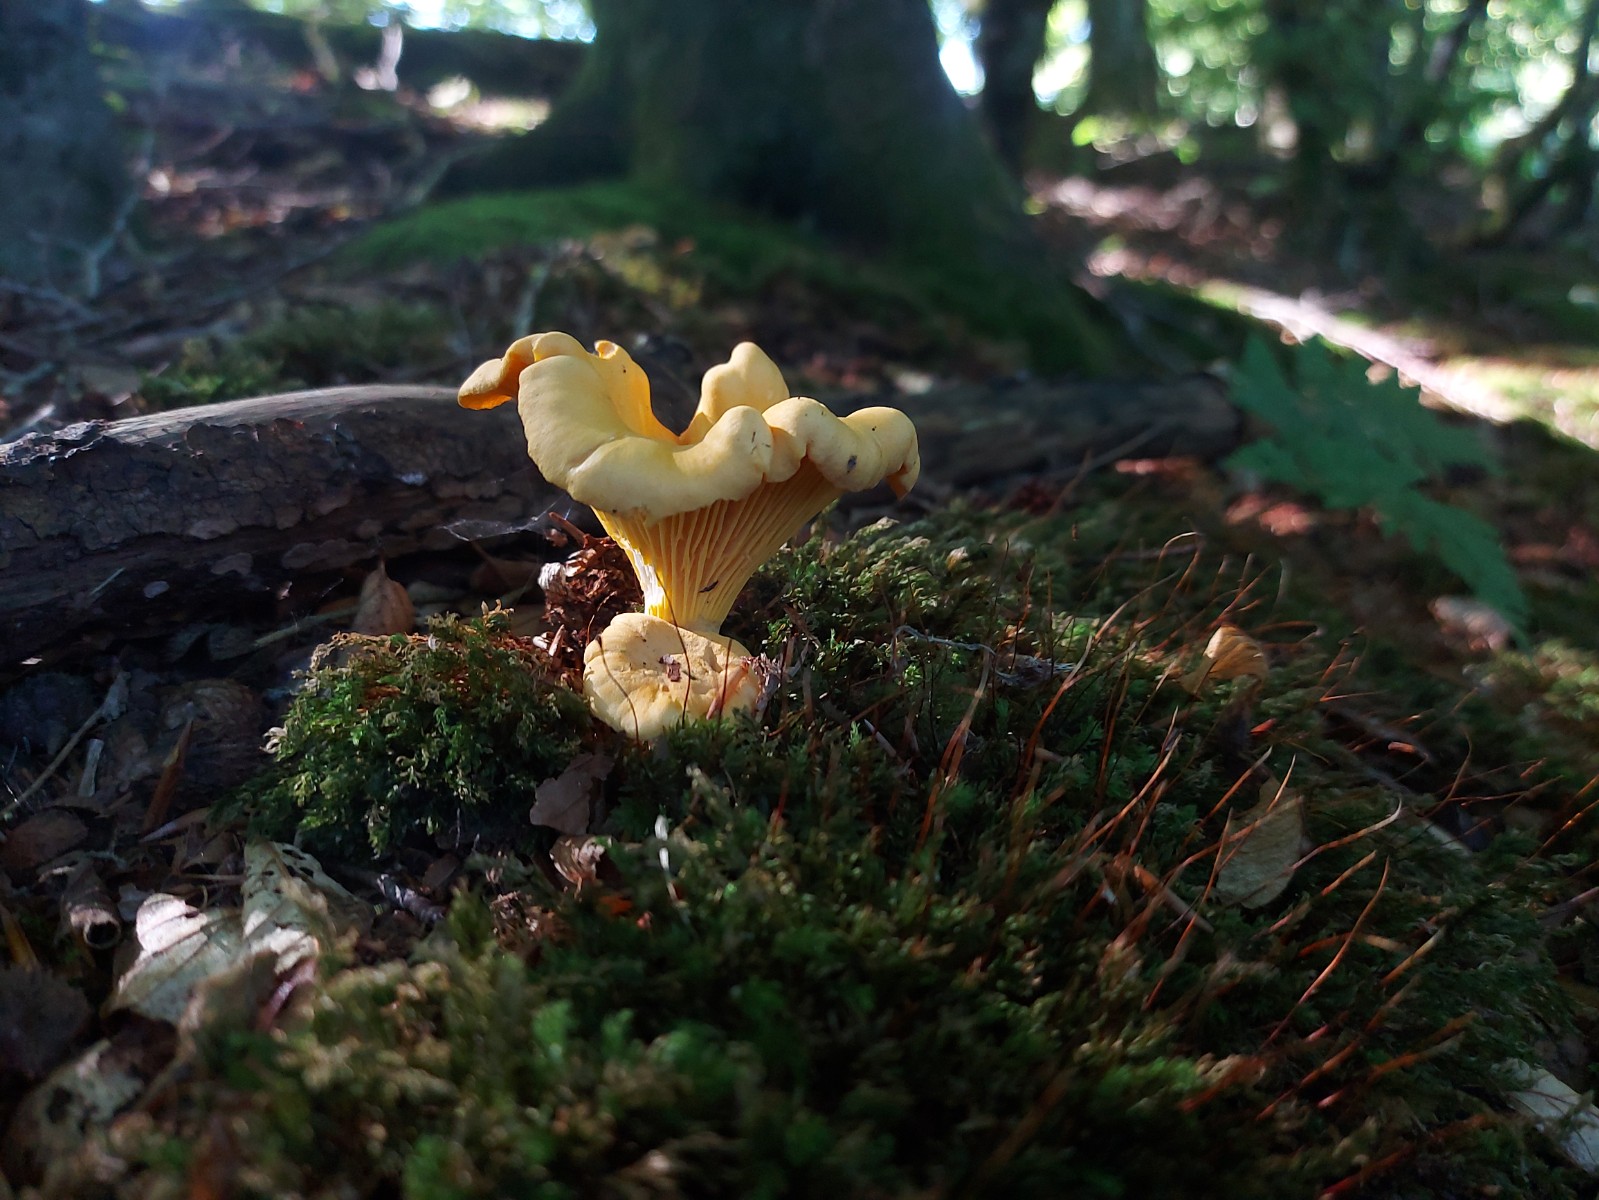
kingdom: Fungi
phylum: Basidiomycota
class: Agaricomycetes
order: Cantharellales
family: Hydnaceae
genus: Cantharellus
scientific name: Cantharellus pallens
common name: bleg kantarel
